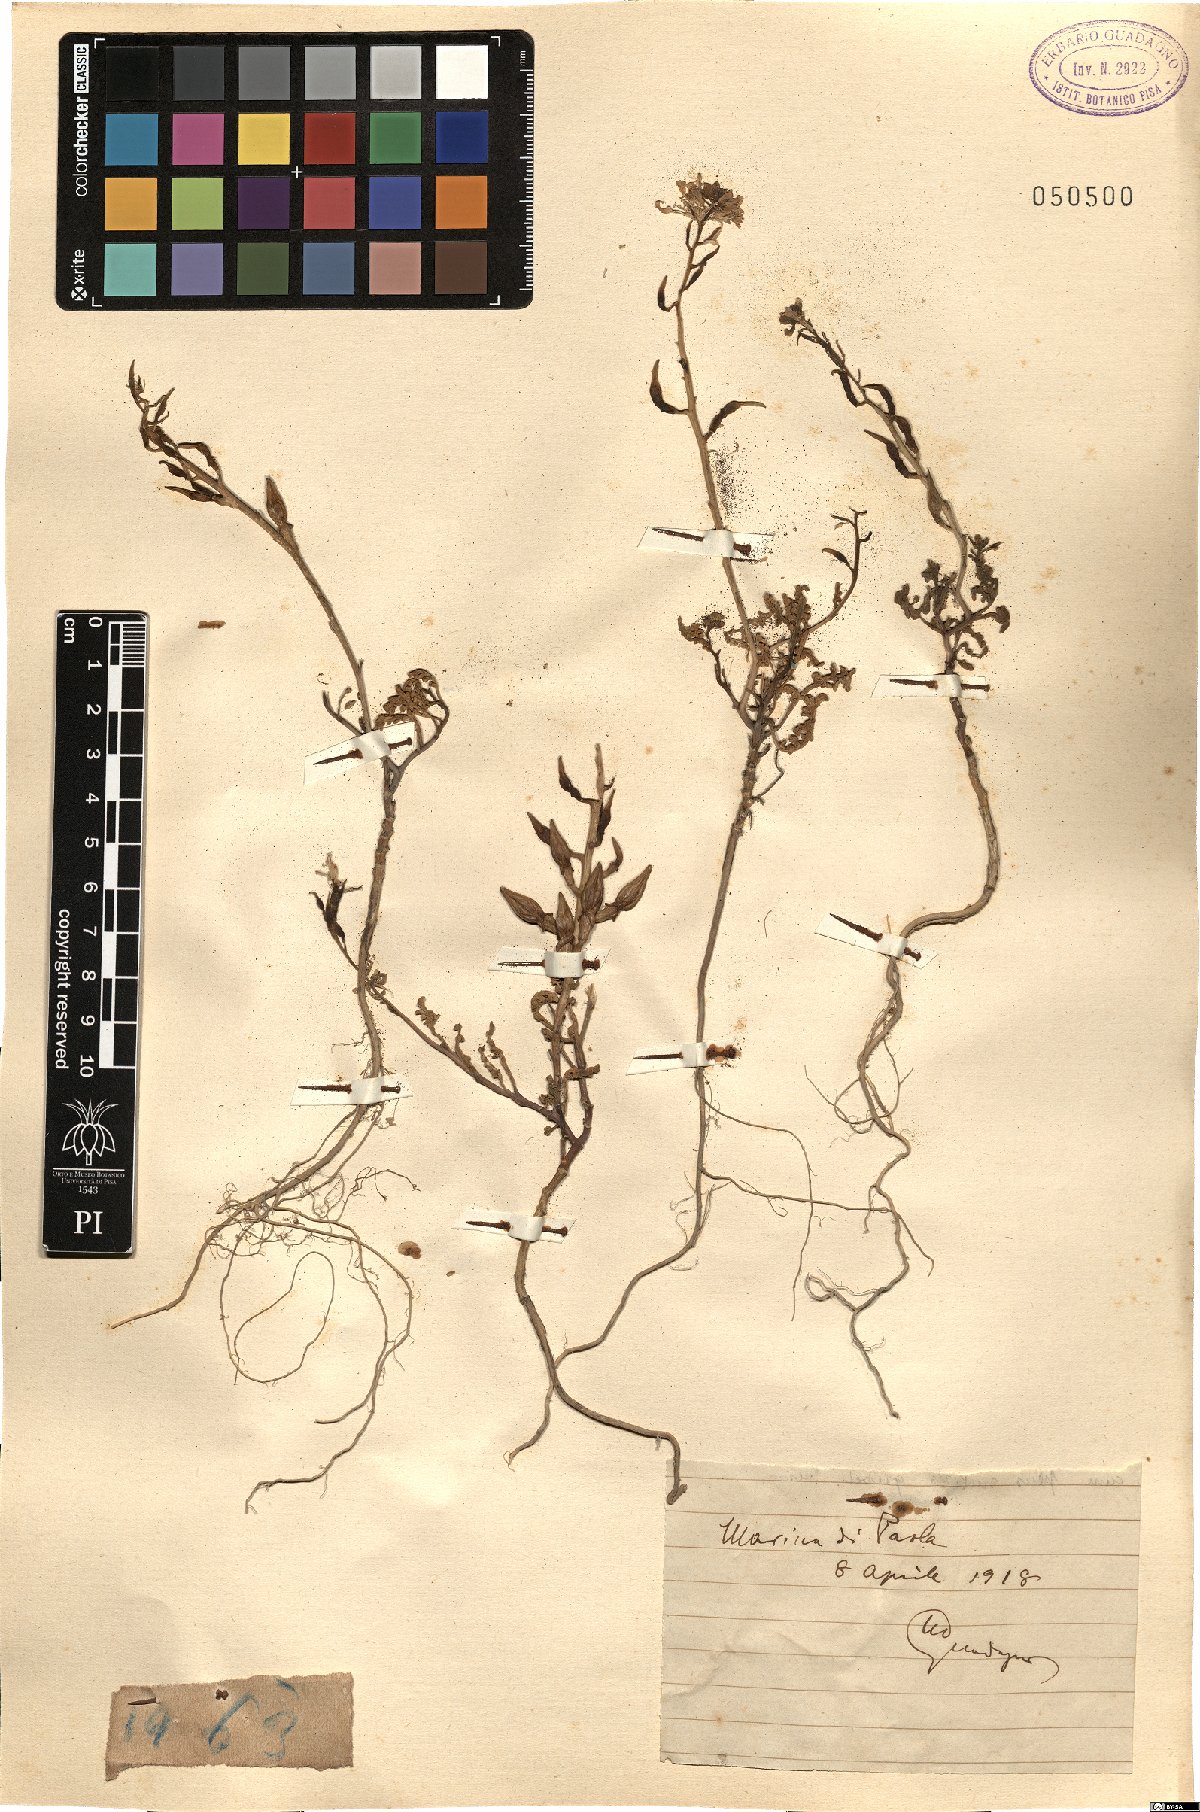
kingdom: Plantae
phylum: Tracheophyta
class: Magnoliopsida
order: Brassicales
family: Brassicaceae
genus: Cakile
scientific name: Cakile
